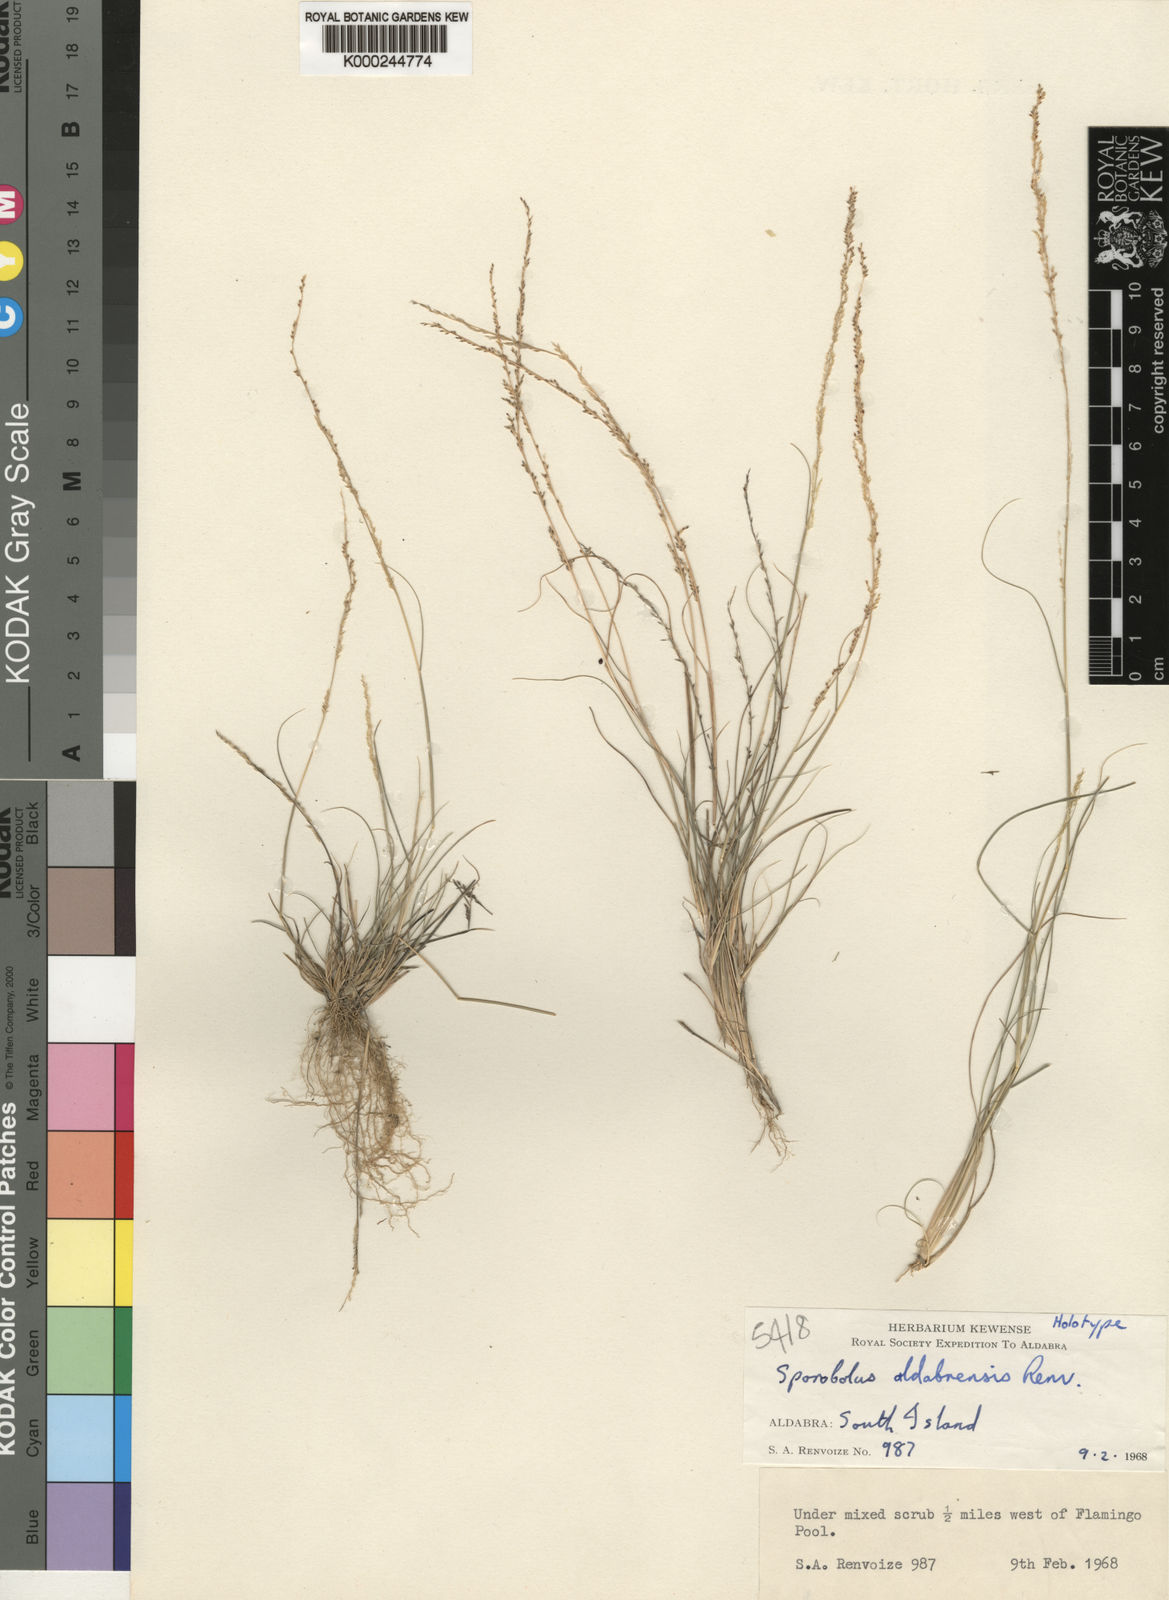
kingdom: Plantae
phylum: Tracheophyta
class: Liliopsida
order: Poales
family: Poaceae
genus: Sporobolus
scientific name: Sporobolus aldabrensis
